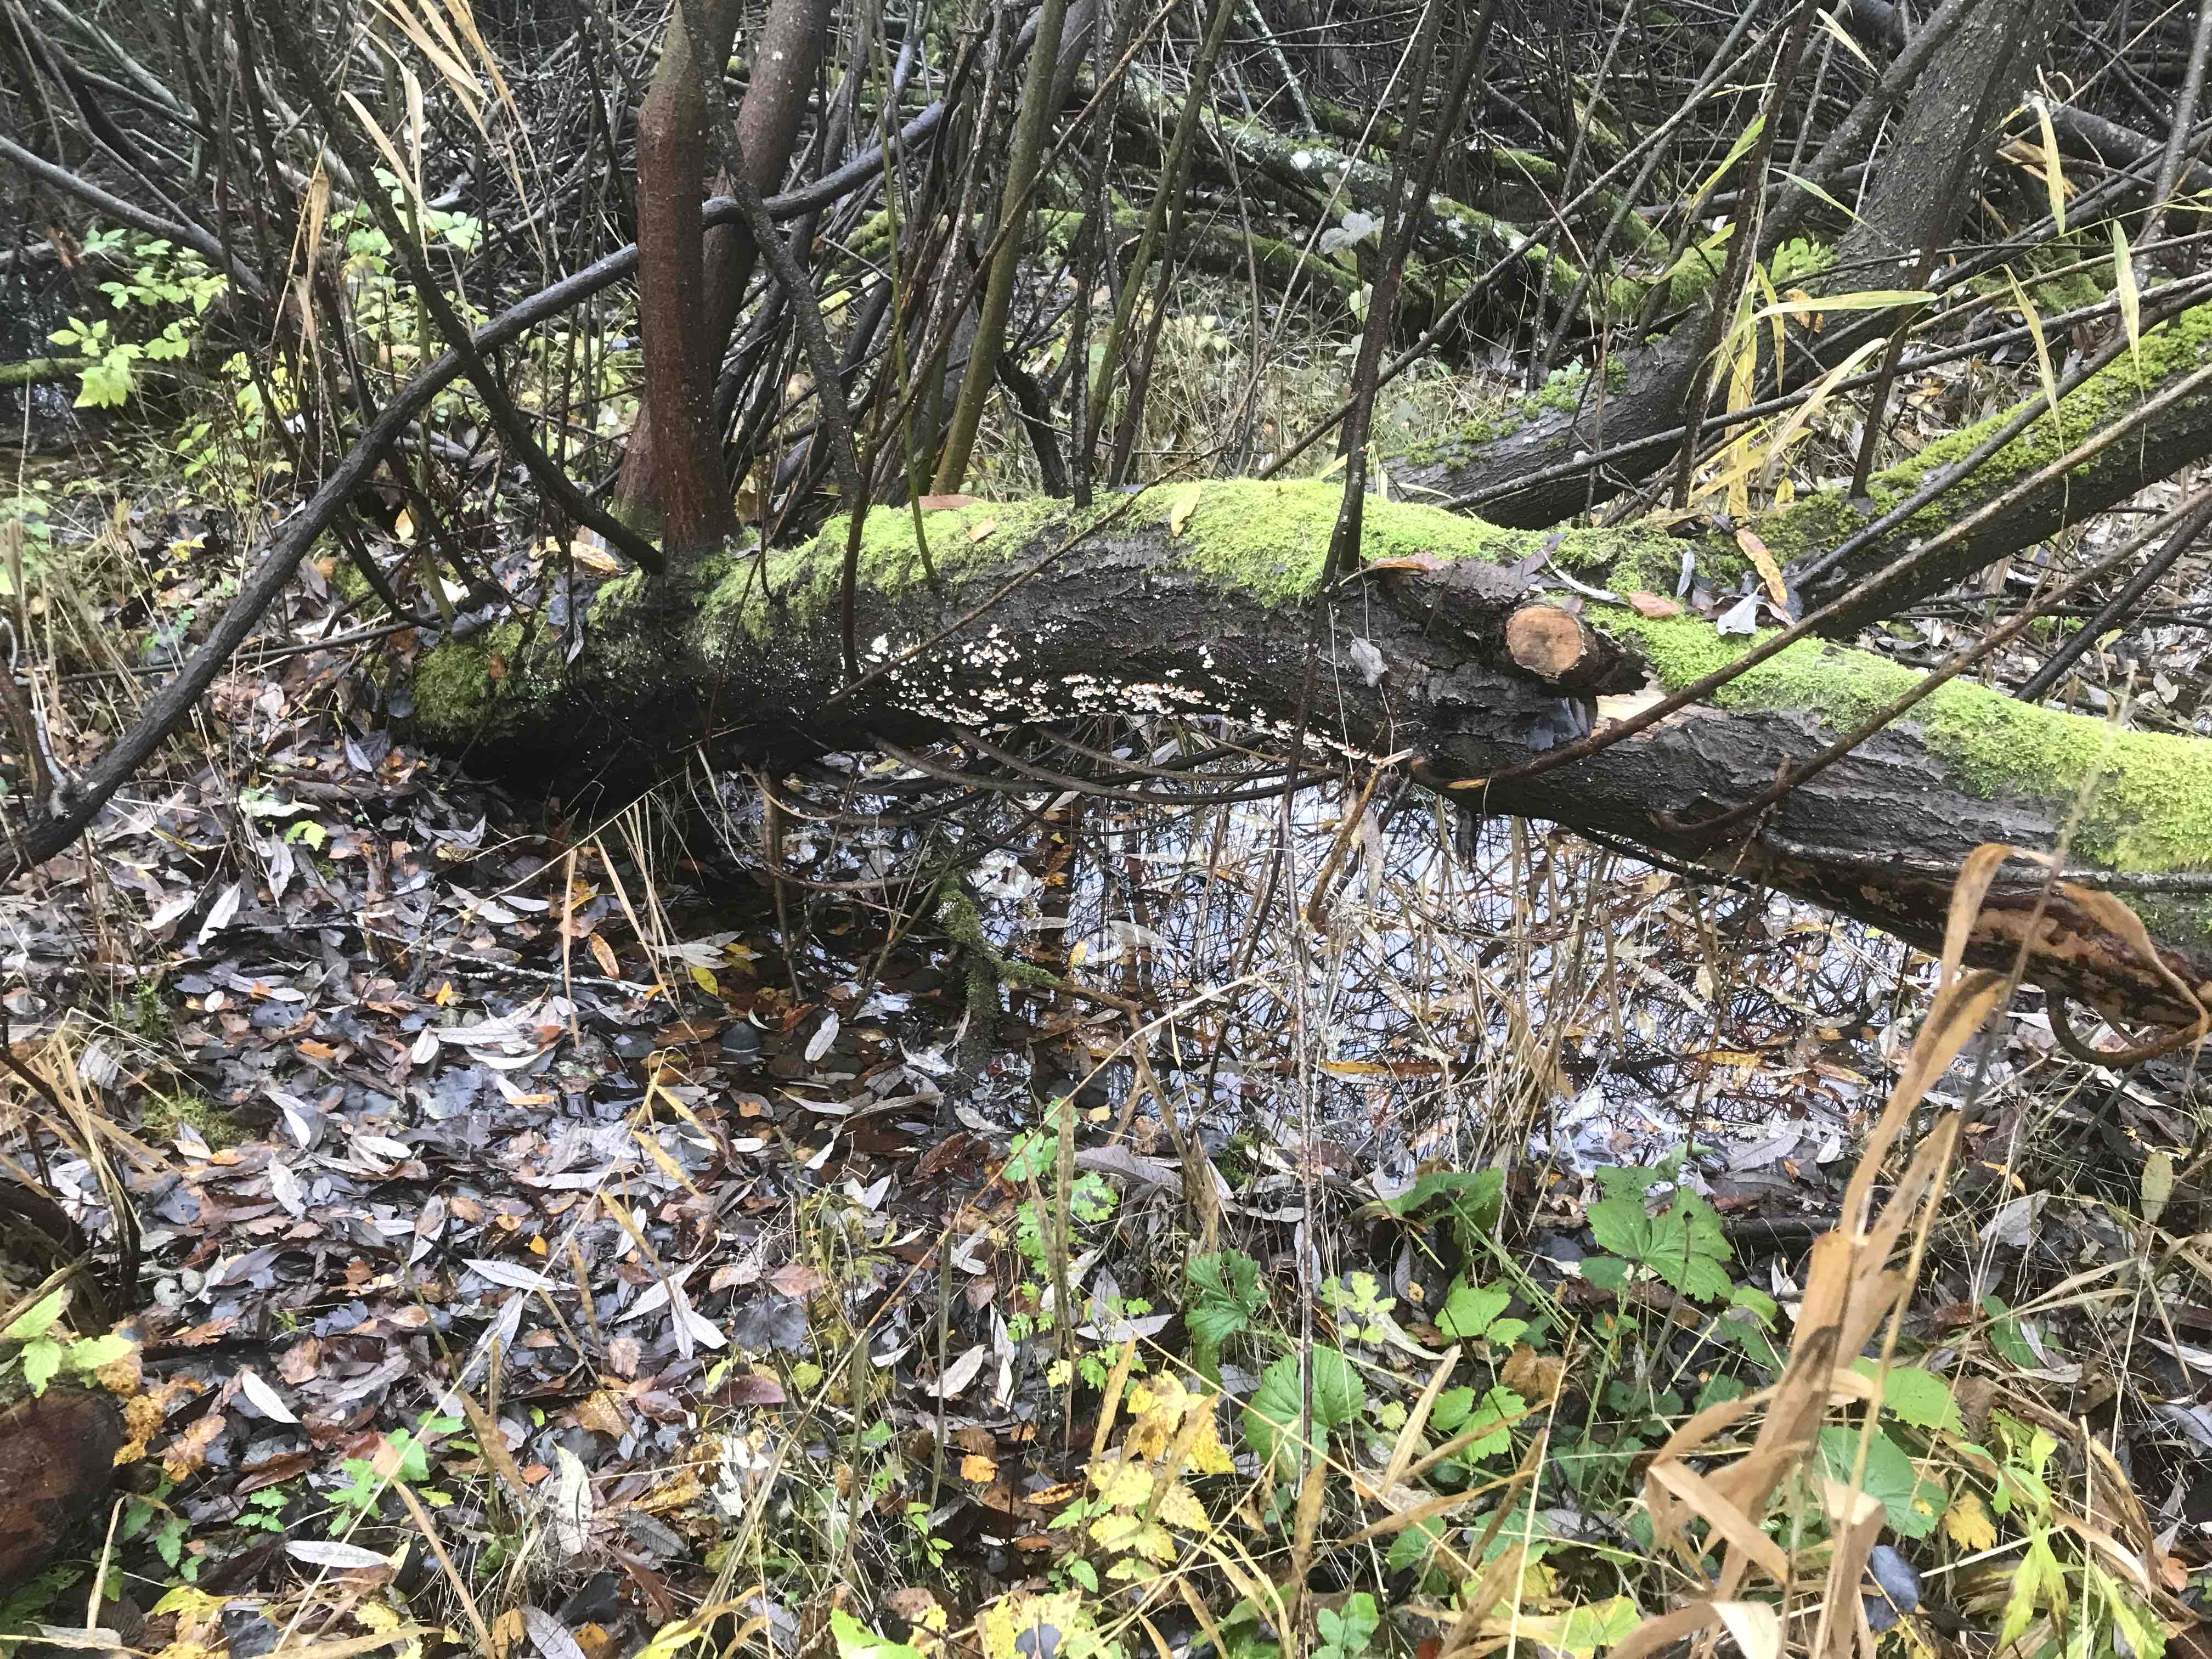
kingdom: Fungi
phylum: Basidiomycota
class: Agaricomycetes
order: Amylocorticiales
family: Amylocorticiaceae
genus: Plicaturopsis
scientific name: Plicaturopsis crispa
